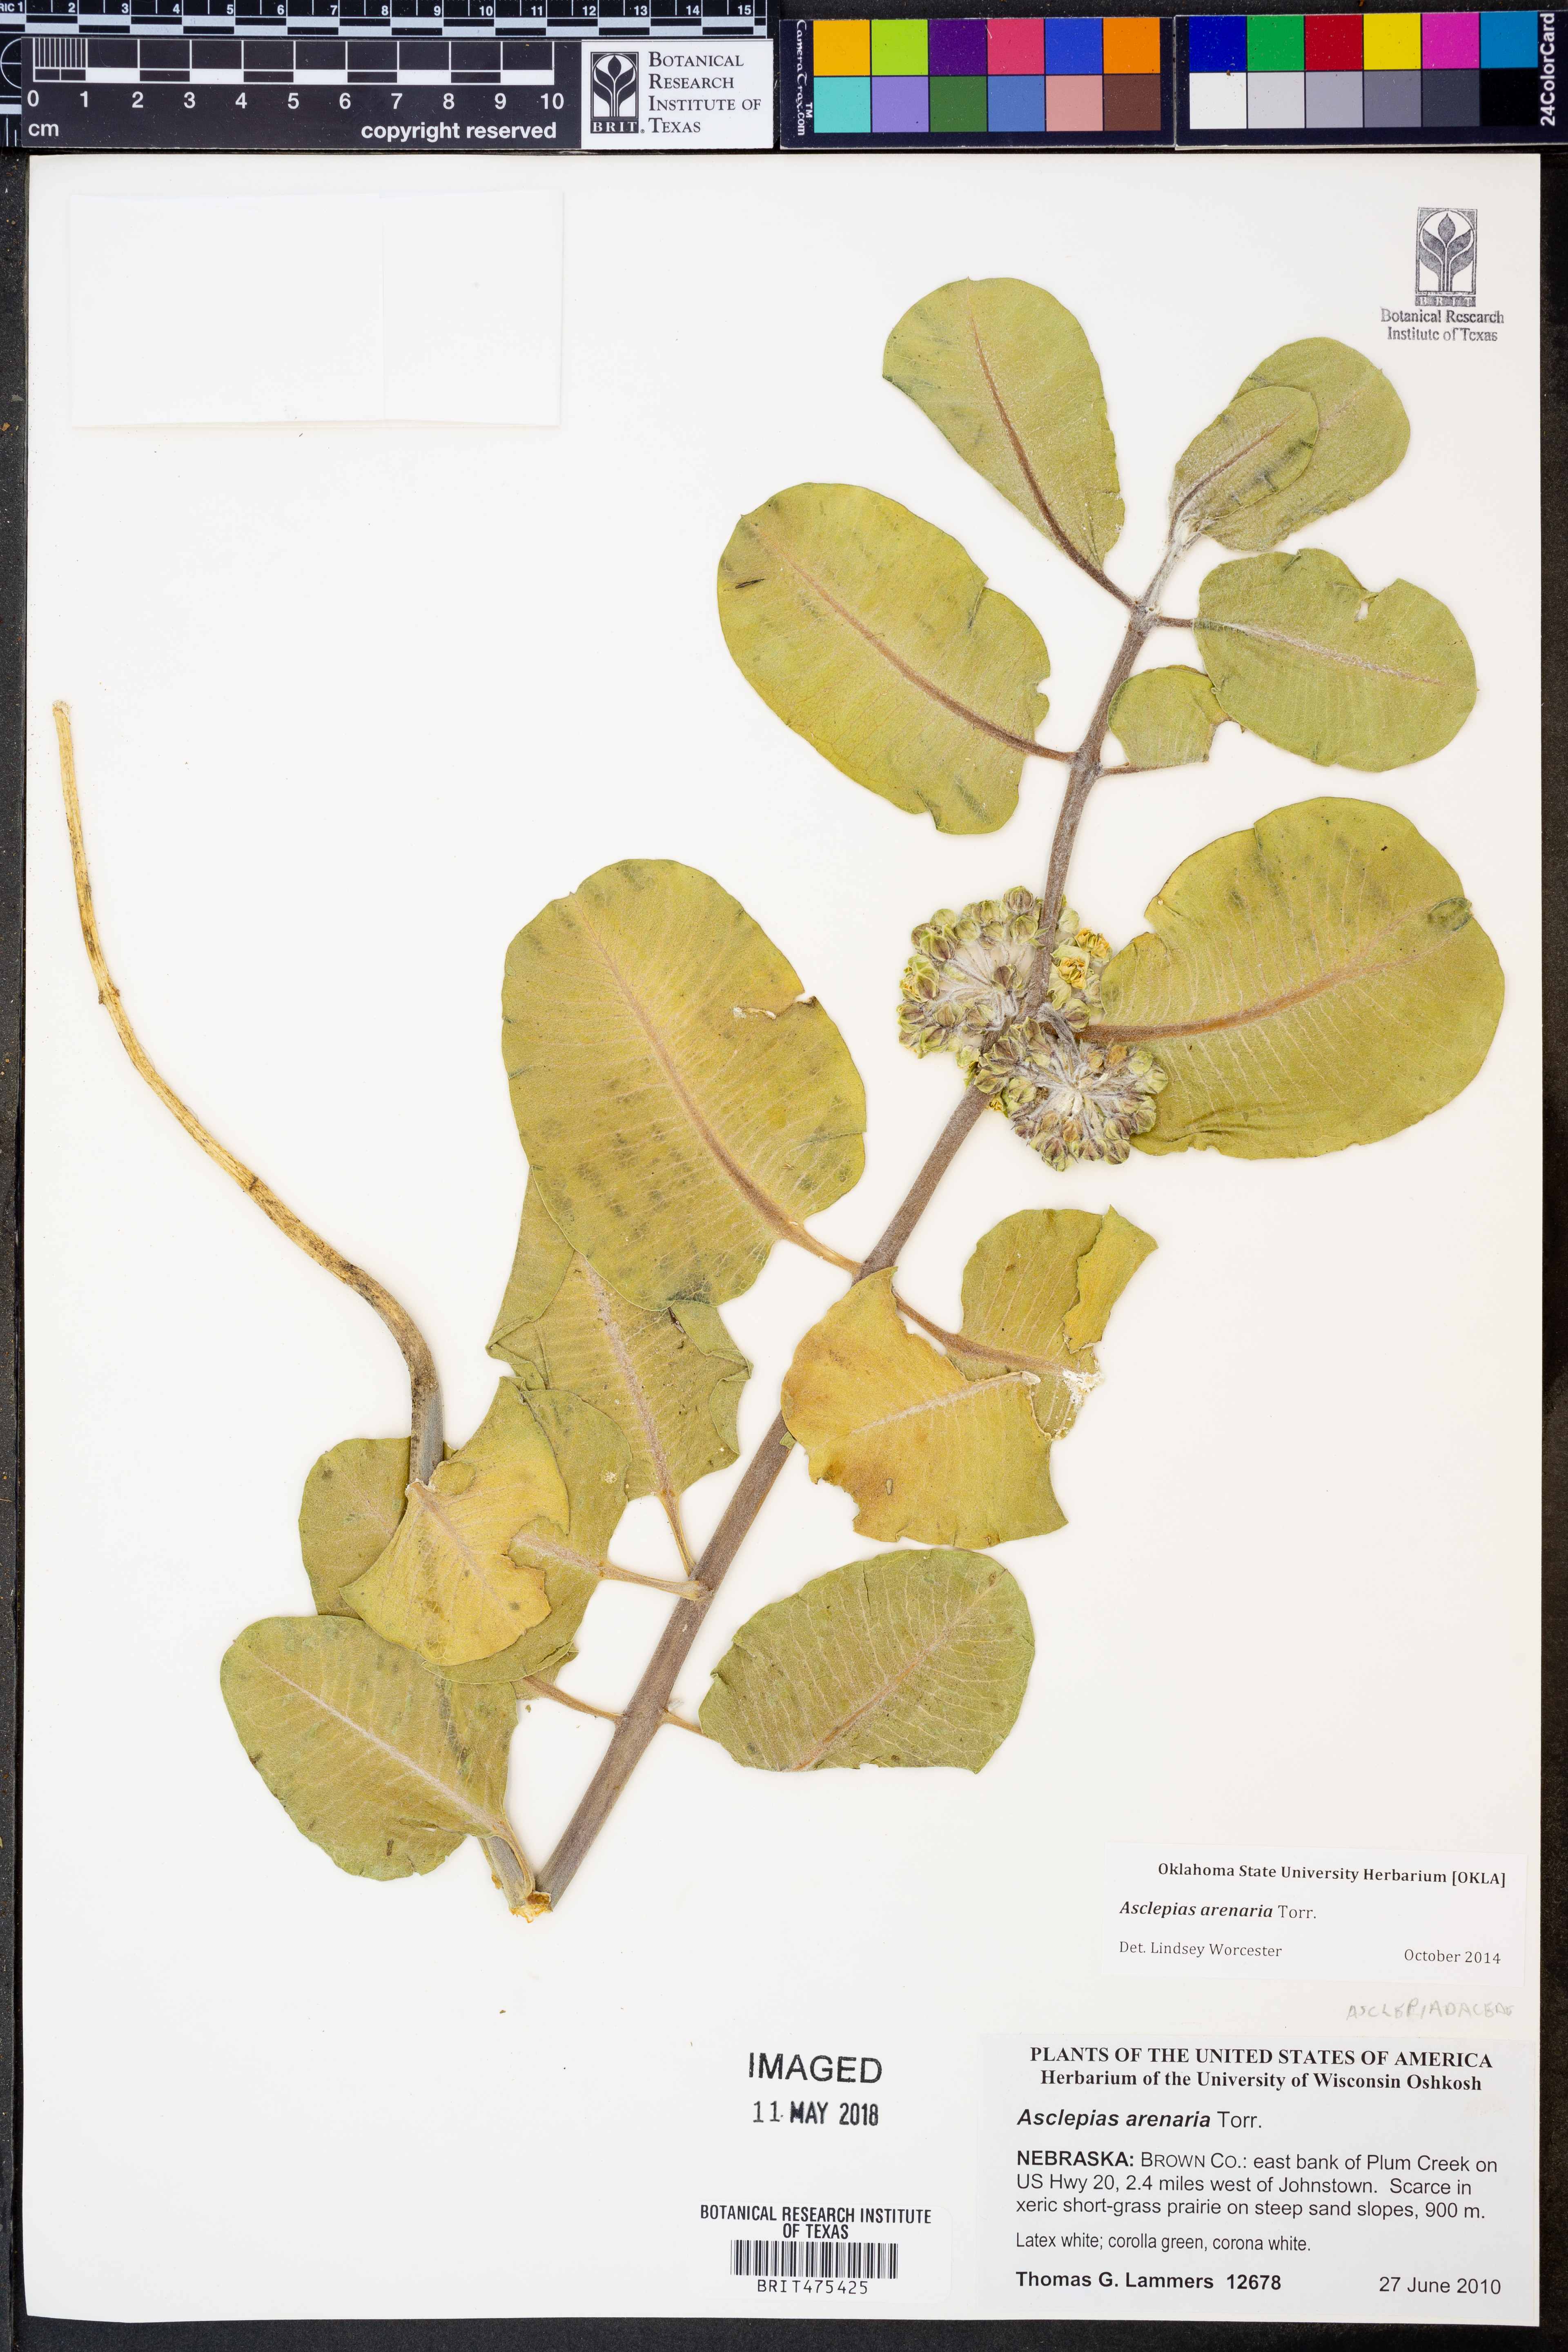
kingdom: Plantae
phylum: Tracheophyta
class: Magnoliopsida
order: Gentianales
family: Apocynaceae
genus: Asclepias
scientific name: Asclepias arenaria
